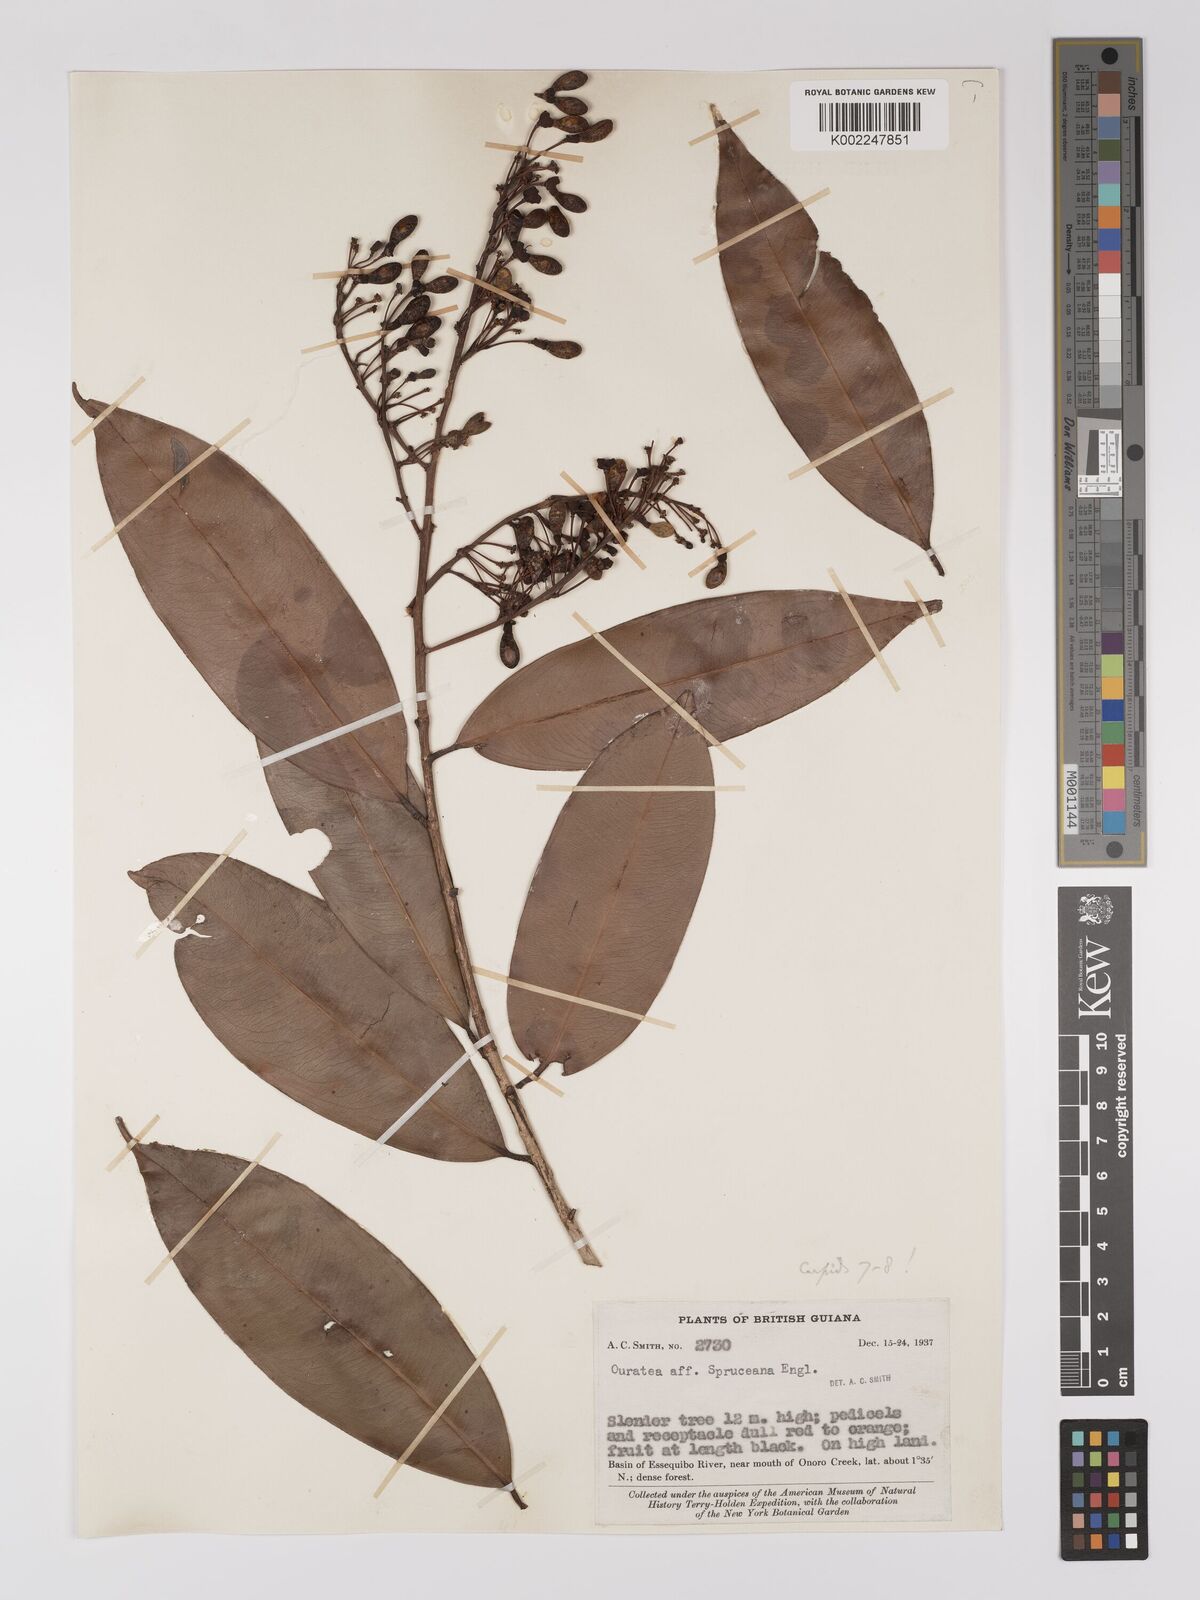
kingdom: Plantae
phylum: Tracheophyta
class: Magnoliopsida
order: Malpighiales
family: Ochnaceae
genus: Ouratea
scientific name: Ouratea
